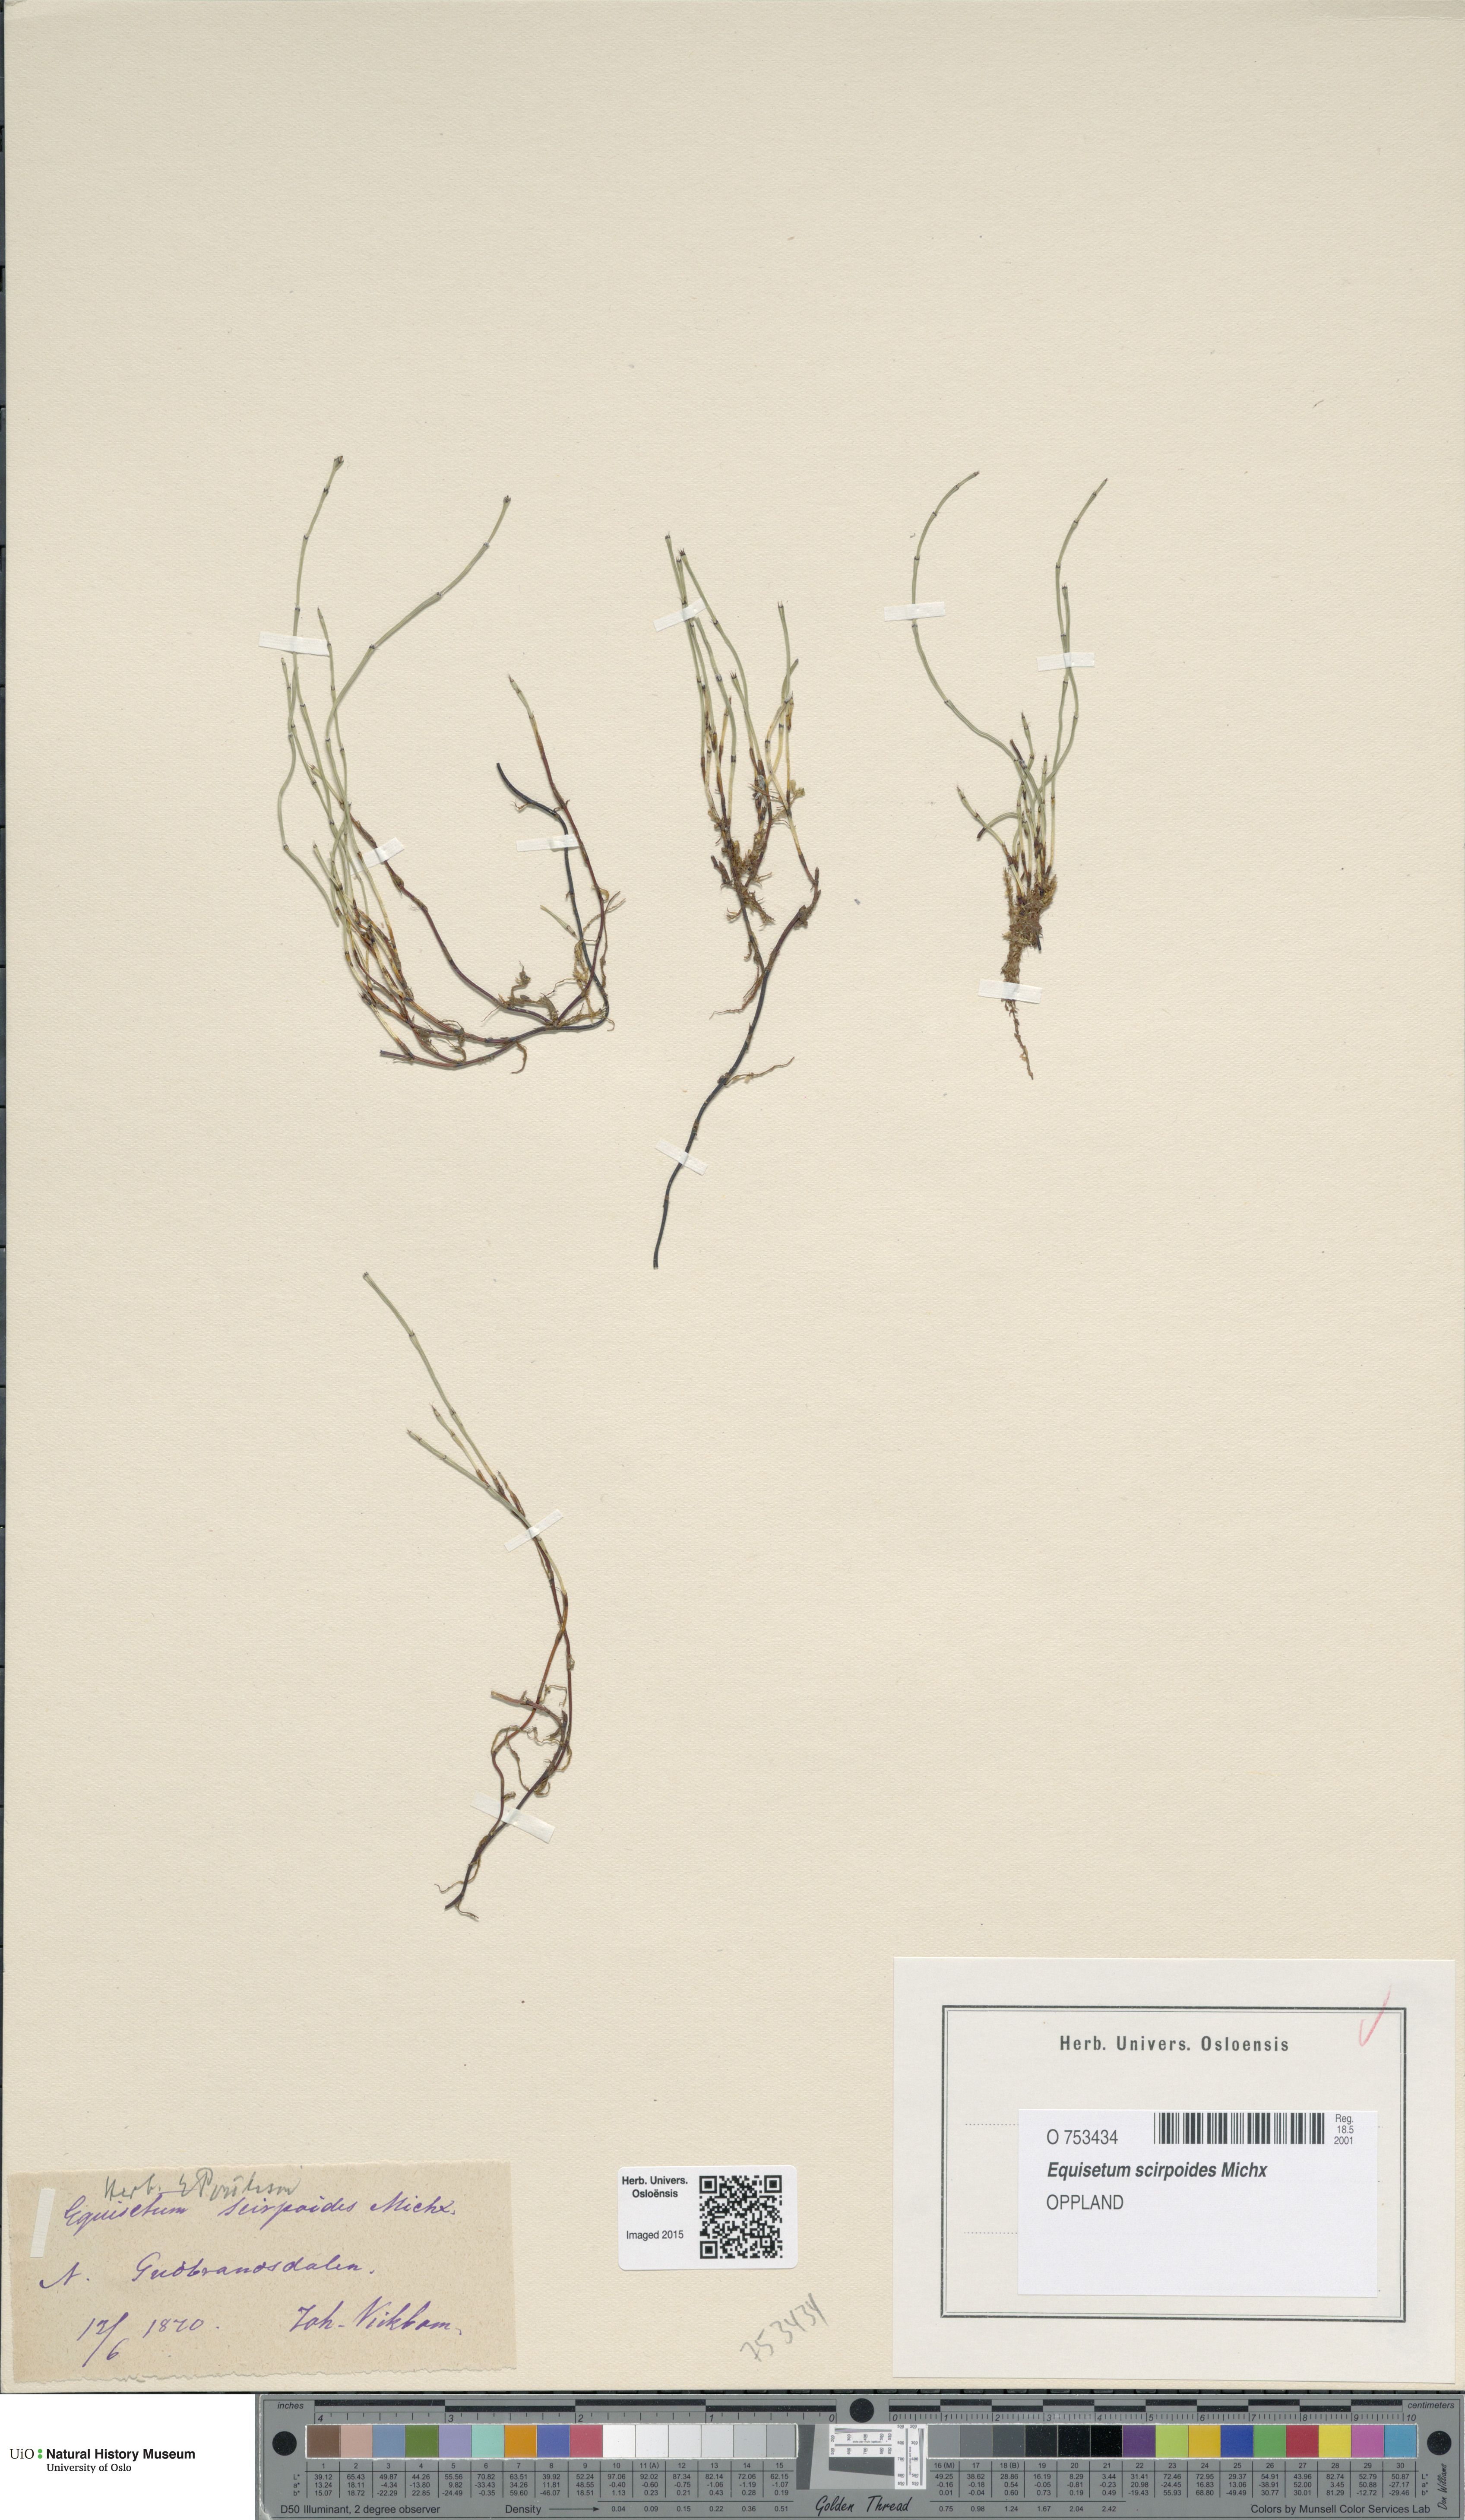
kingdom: Plantae
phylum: Tracheophyta
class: Polypodiopsida
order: Equisetales
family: Equisetaceae
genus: Equisetum
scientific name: Equisetum scirpoides
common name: Delicate horsetail
